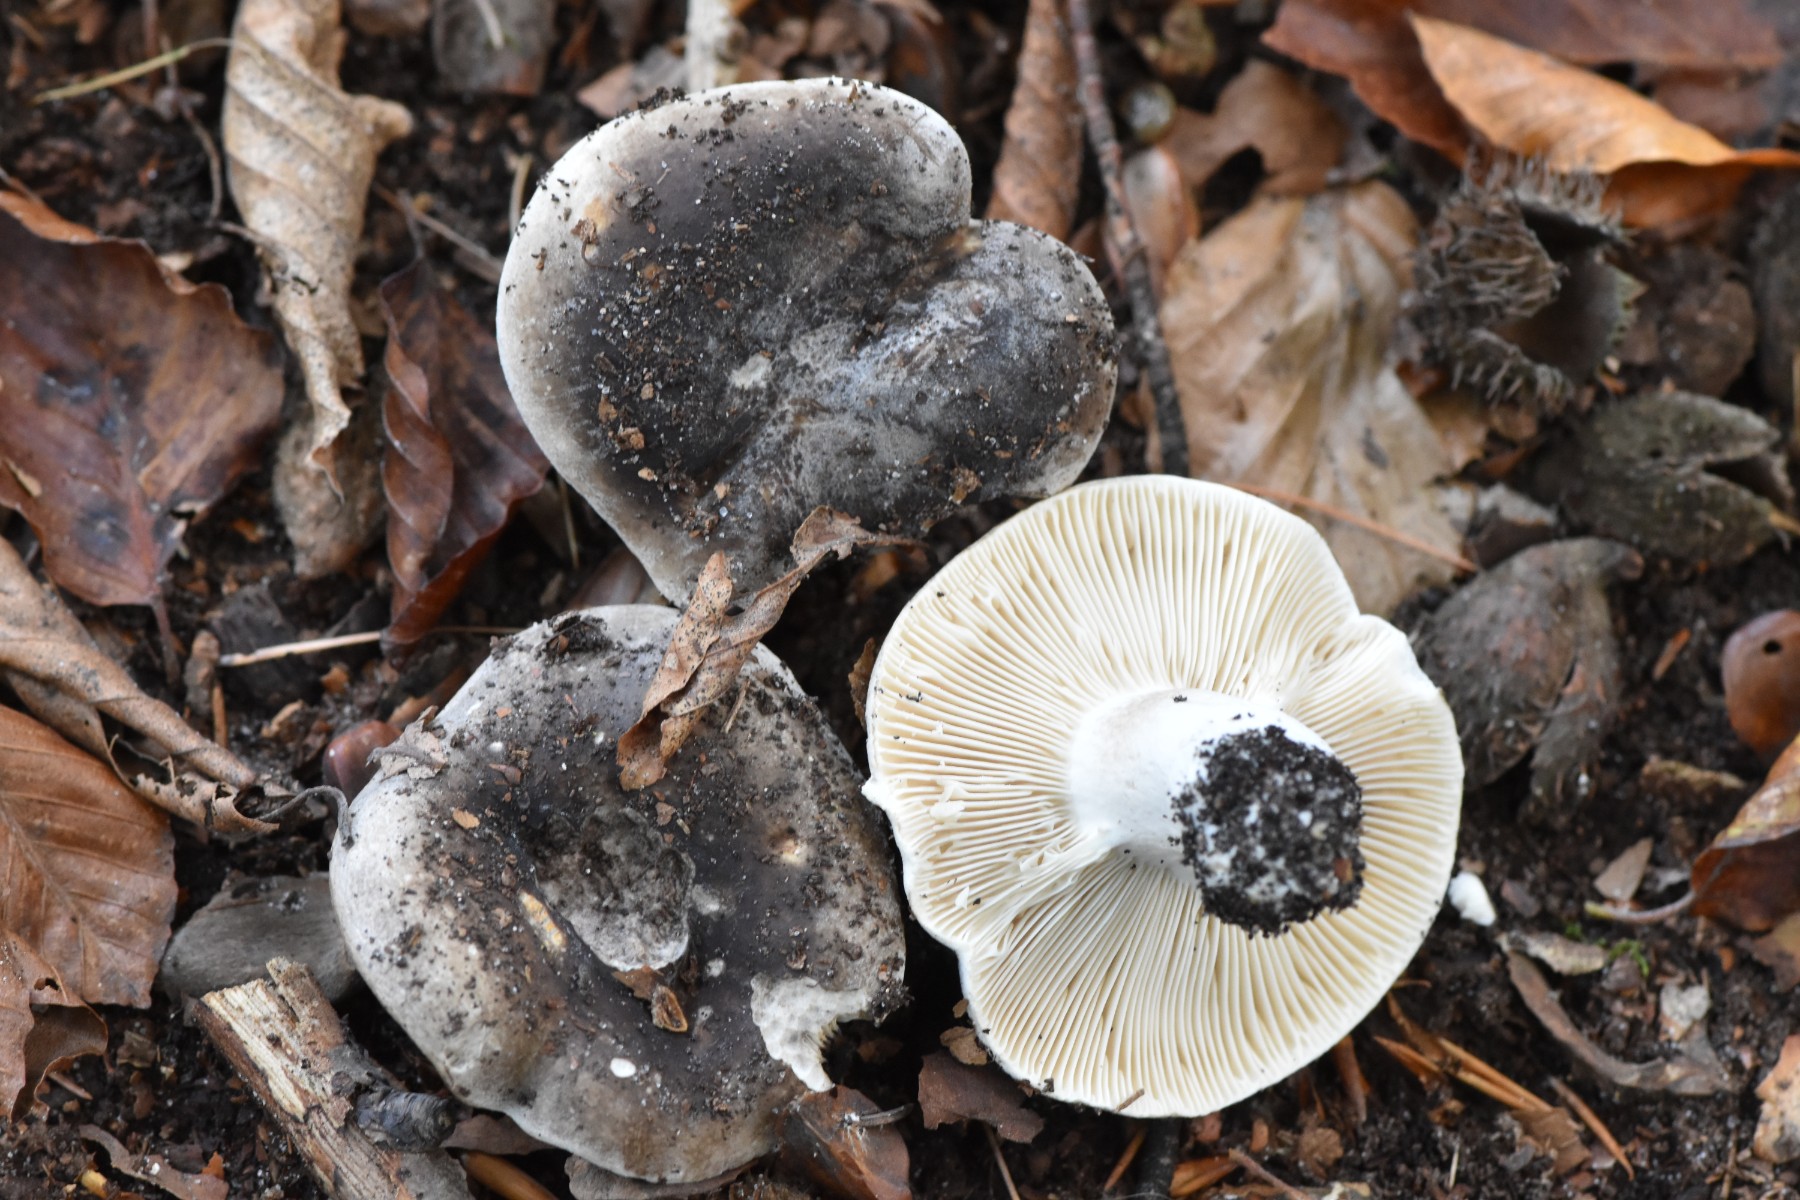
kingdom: Fungi
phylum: Basidiomycota
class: Agaricomycetes
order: Russulales
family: Russulaceae
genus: Russula
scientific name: Russula densifolia
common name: tætbladet skørhat
